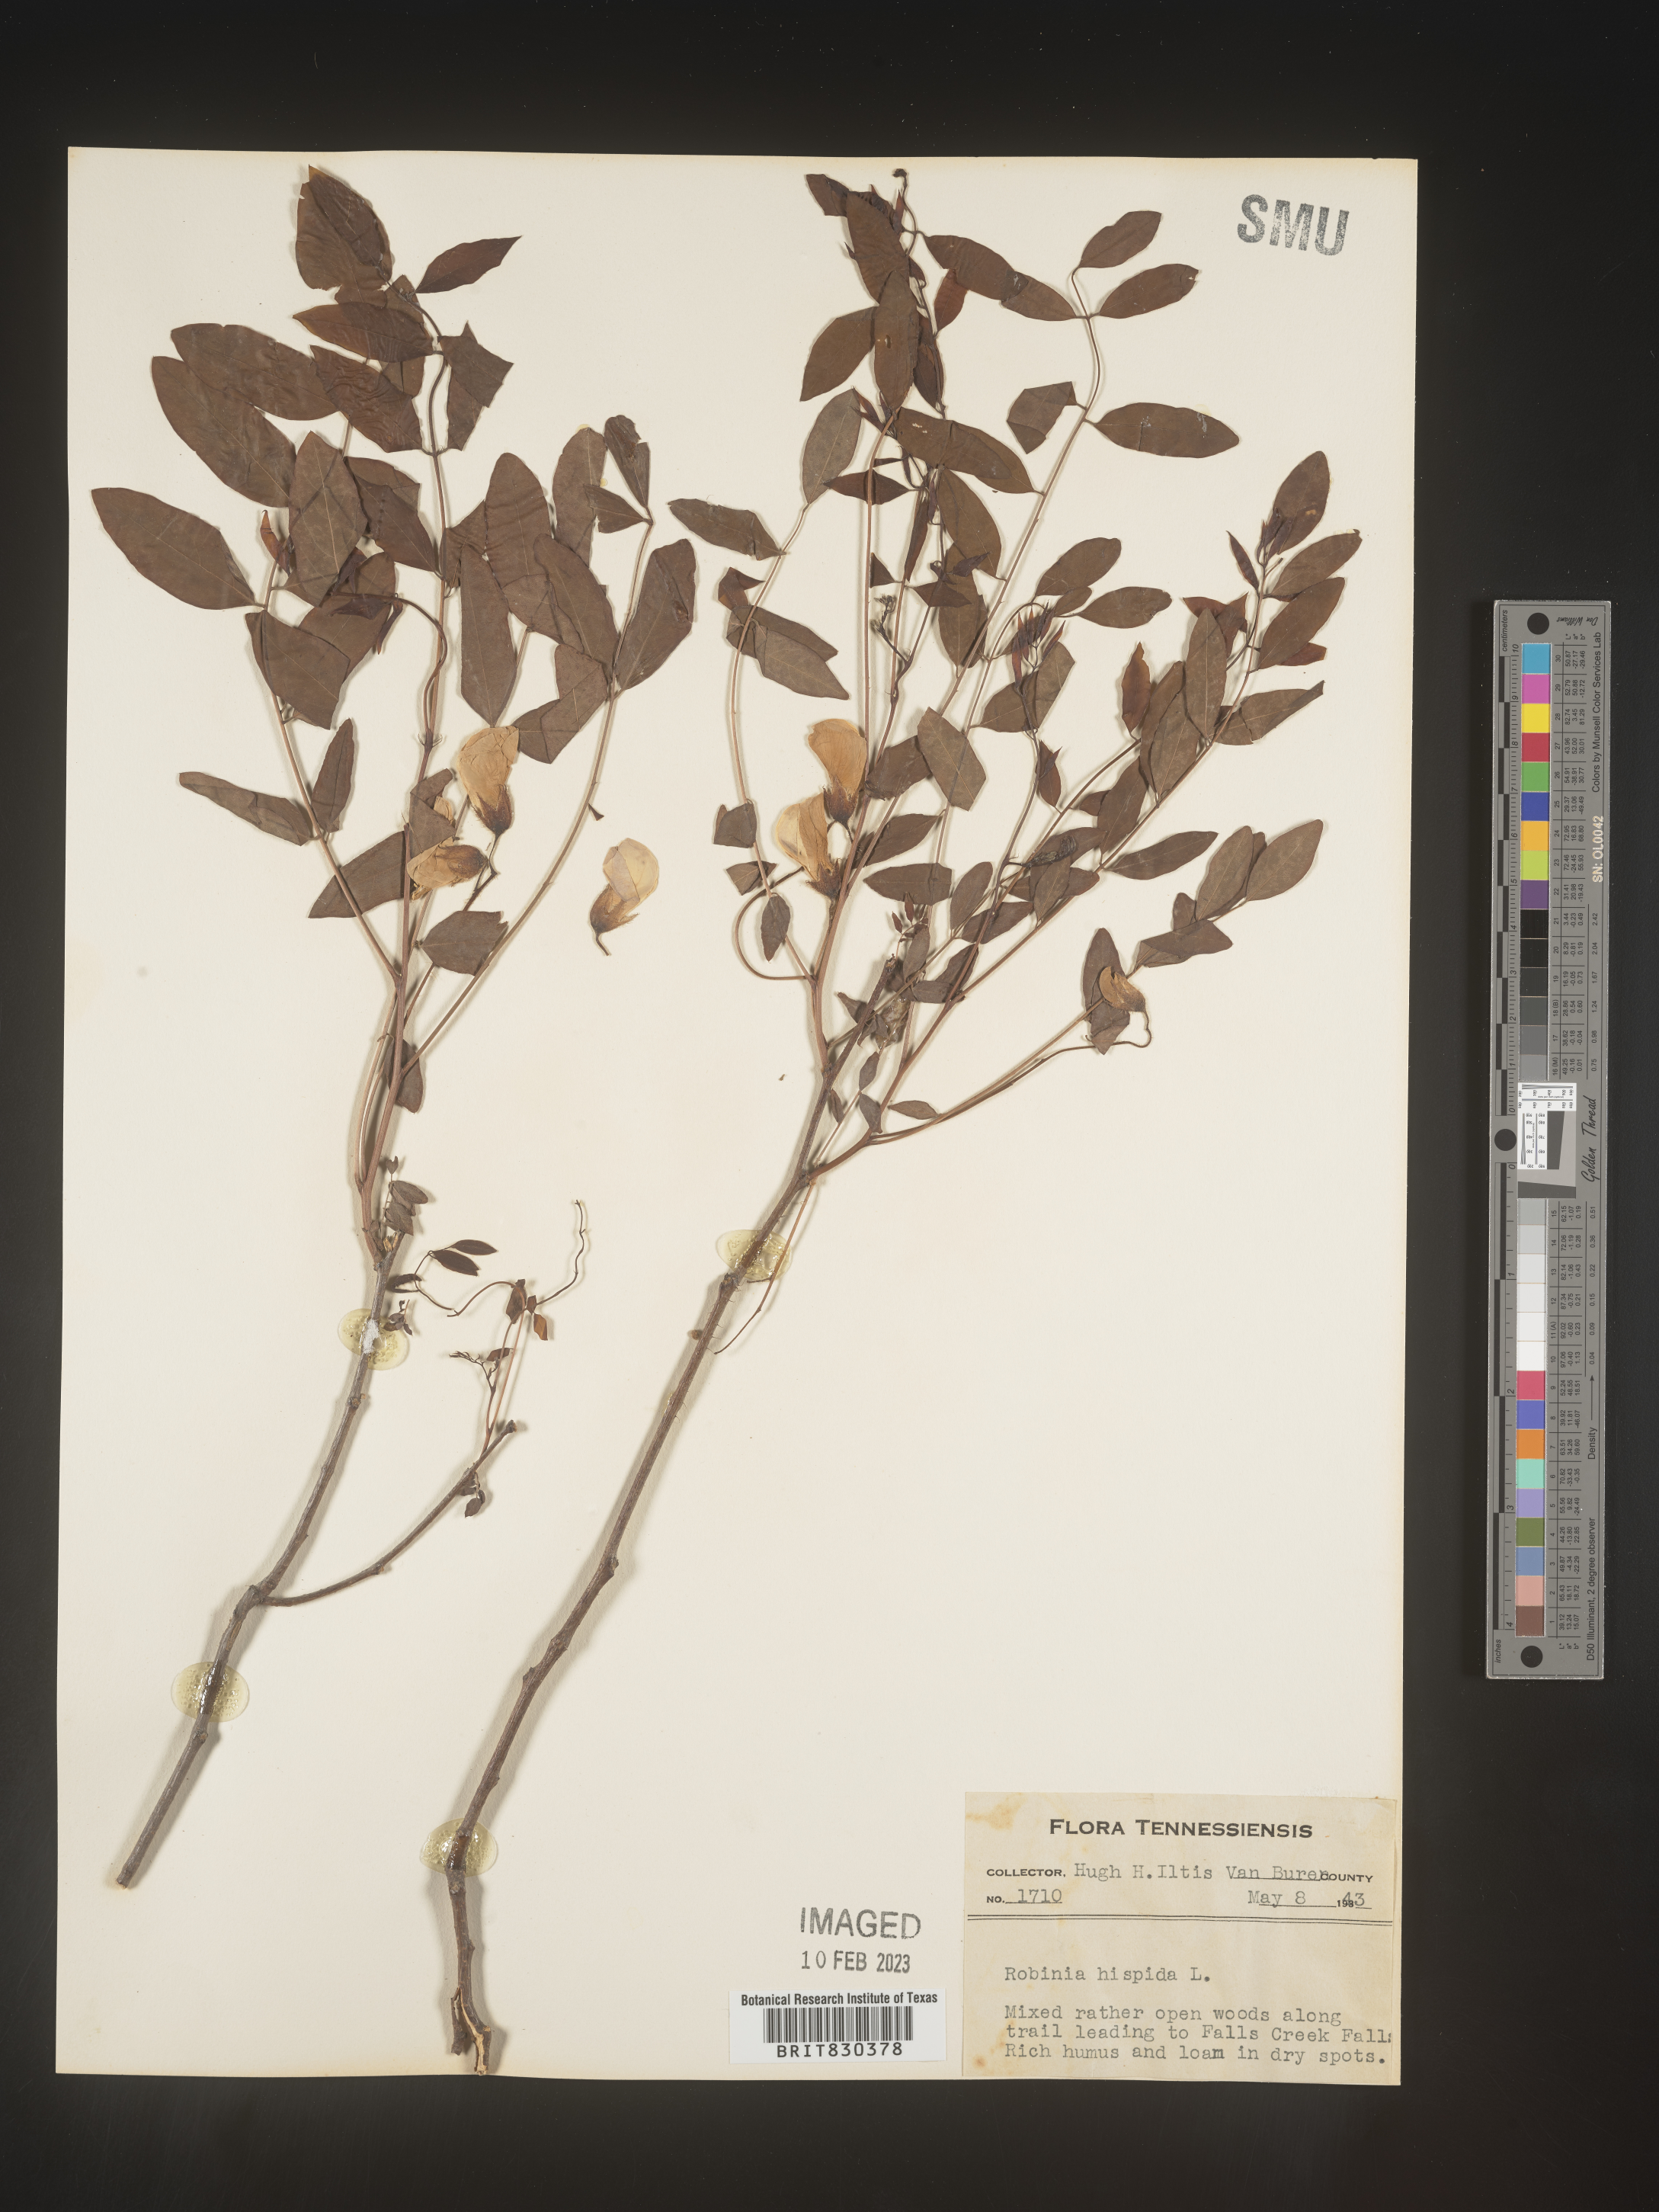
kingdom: Plantae
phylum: Tracheophyta
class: Magnoliopsida
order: Fabales
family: Fabaceae
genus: Robinia
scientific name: Robinia hispida
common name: Bristly locust
